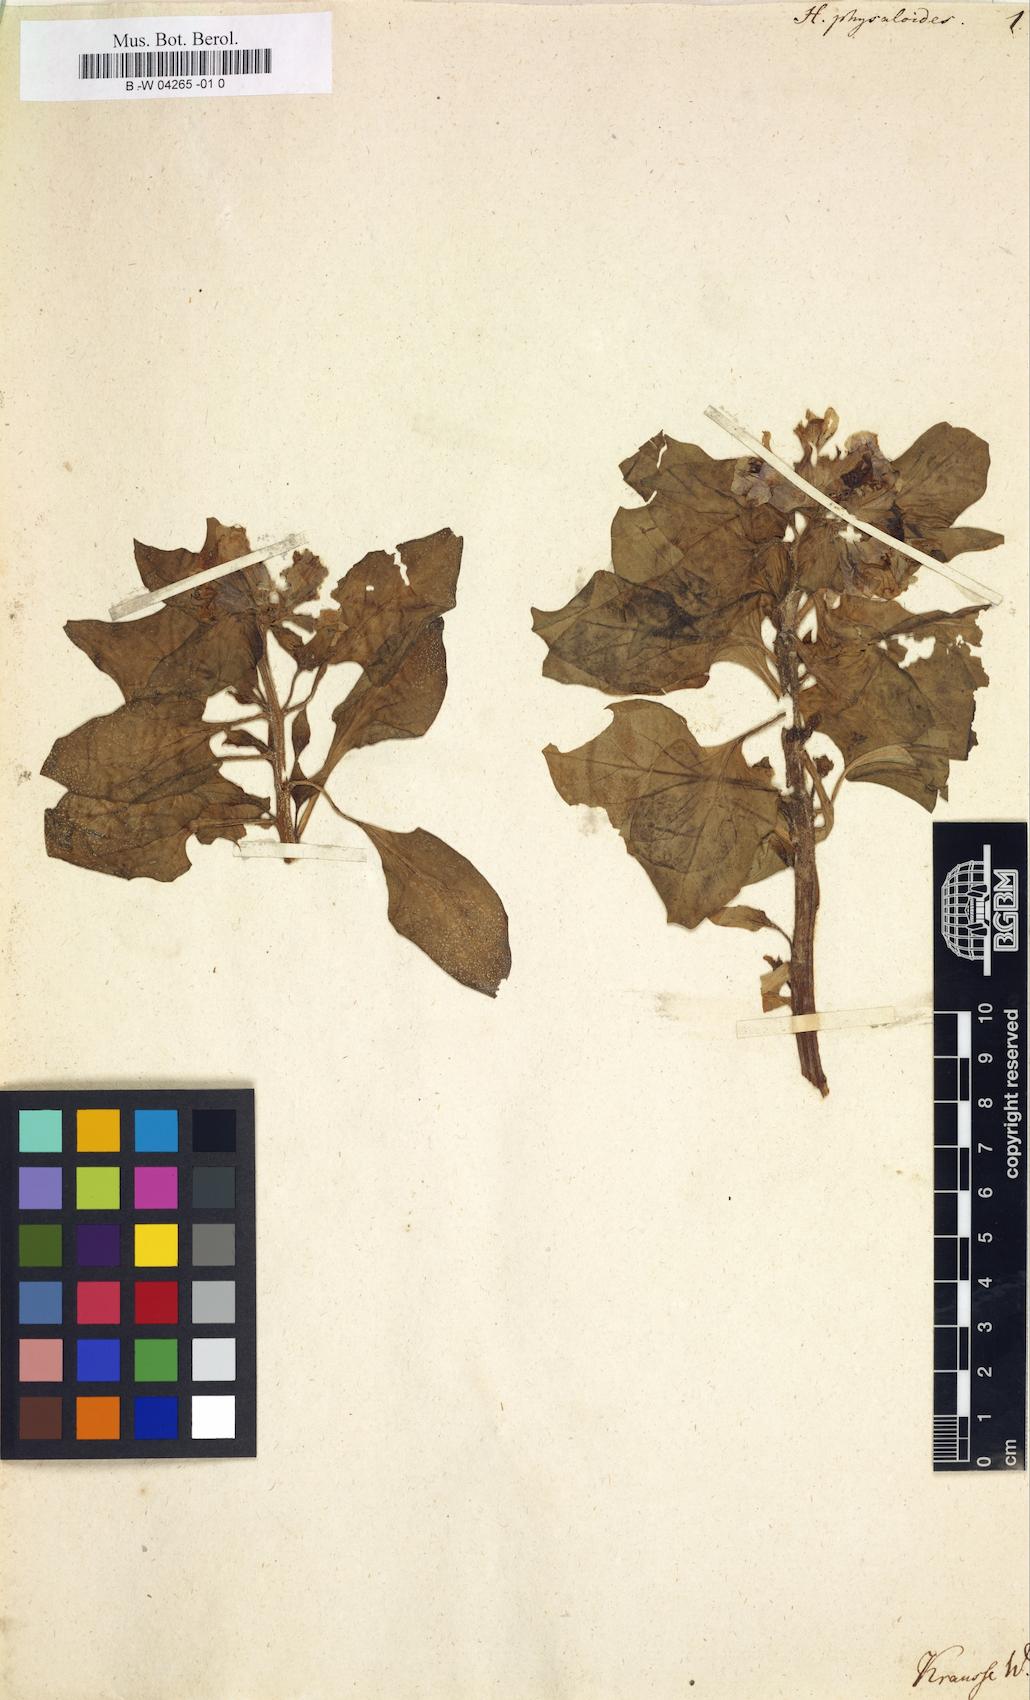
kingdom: Plantae
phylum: Tracheophyta
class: Magnoliopsida
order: Solanales
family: Solanaceae
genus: Physochlaina
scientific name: Physochlaina physaloides
